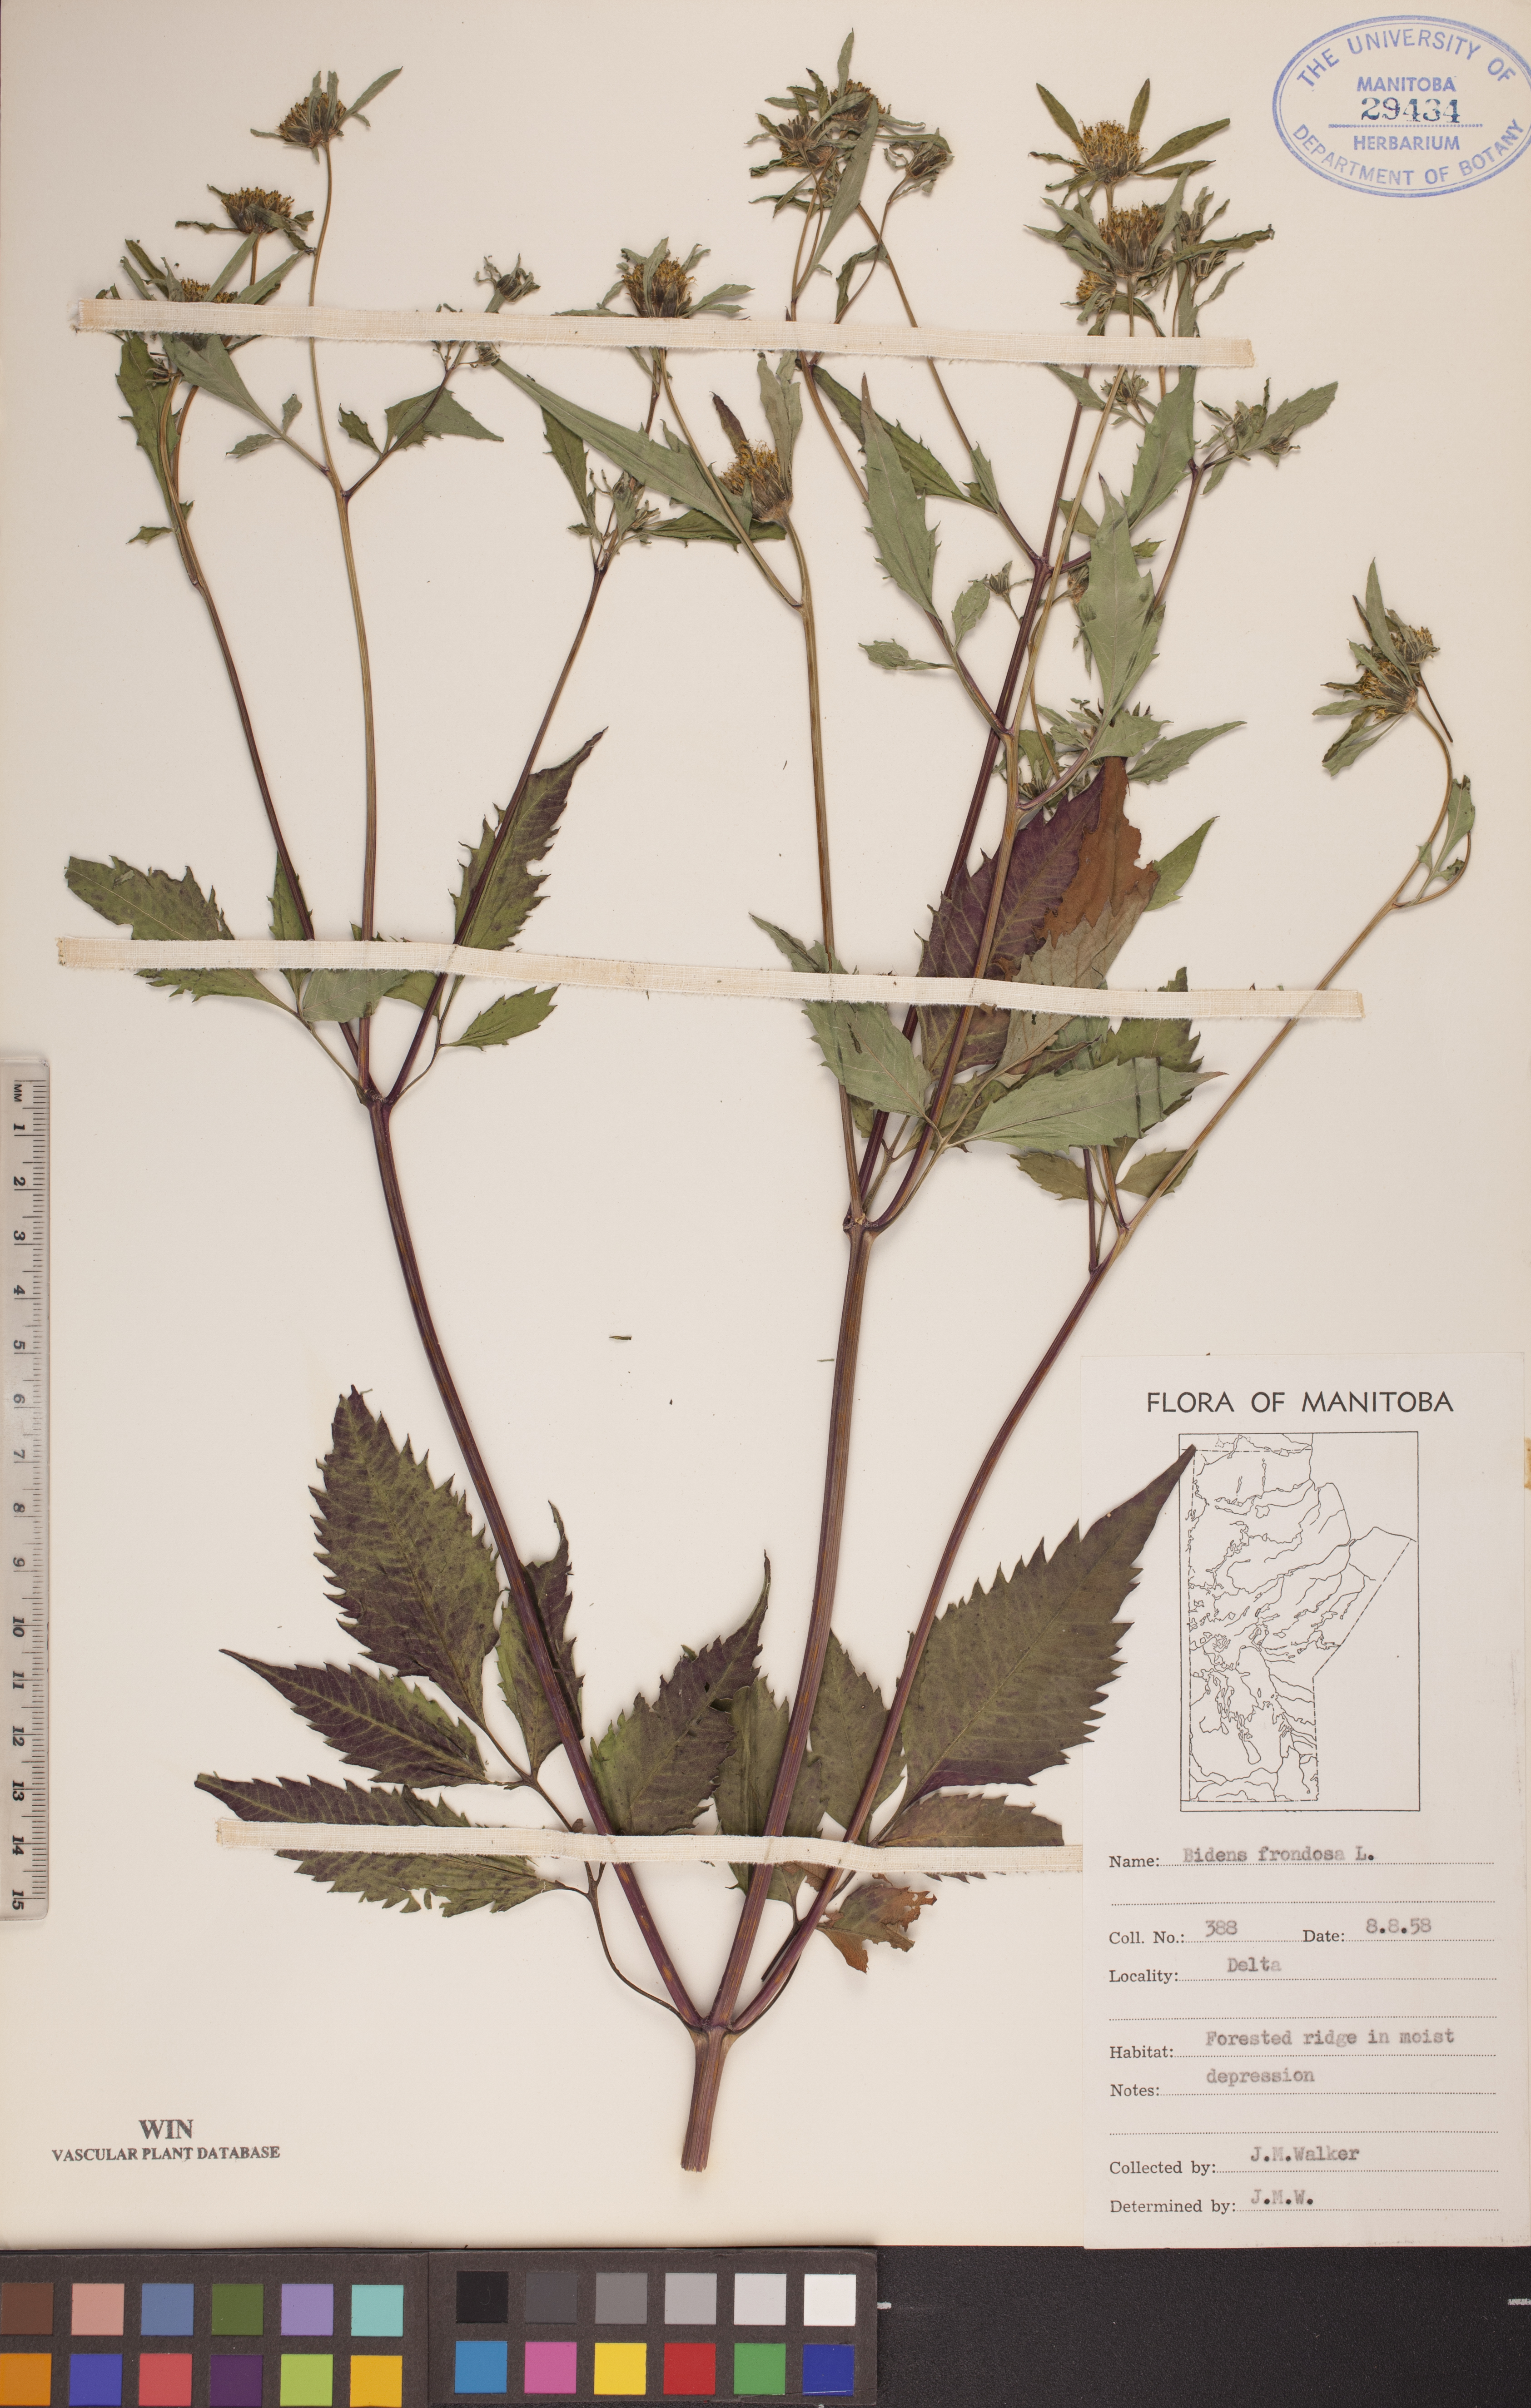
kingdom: Plantae
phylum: Tracheophyta
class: Magnoliopsida
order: Asterales
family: Asteraceae
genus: Bidens
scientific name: Bidens frondosa
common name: Beggarticks
